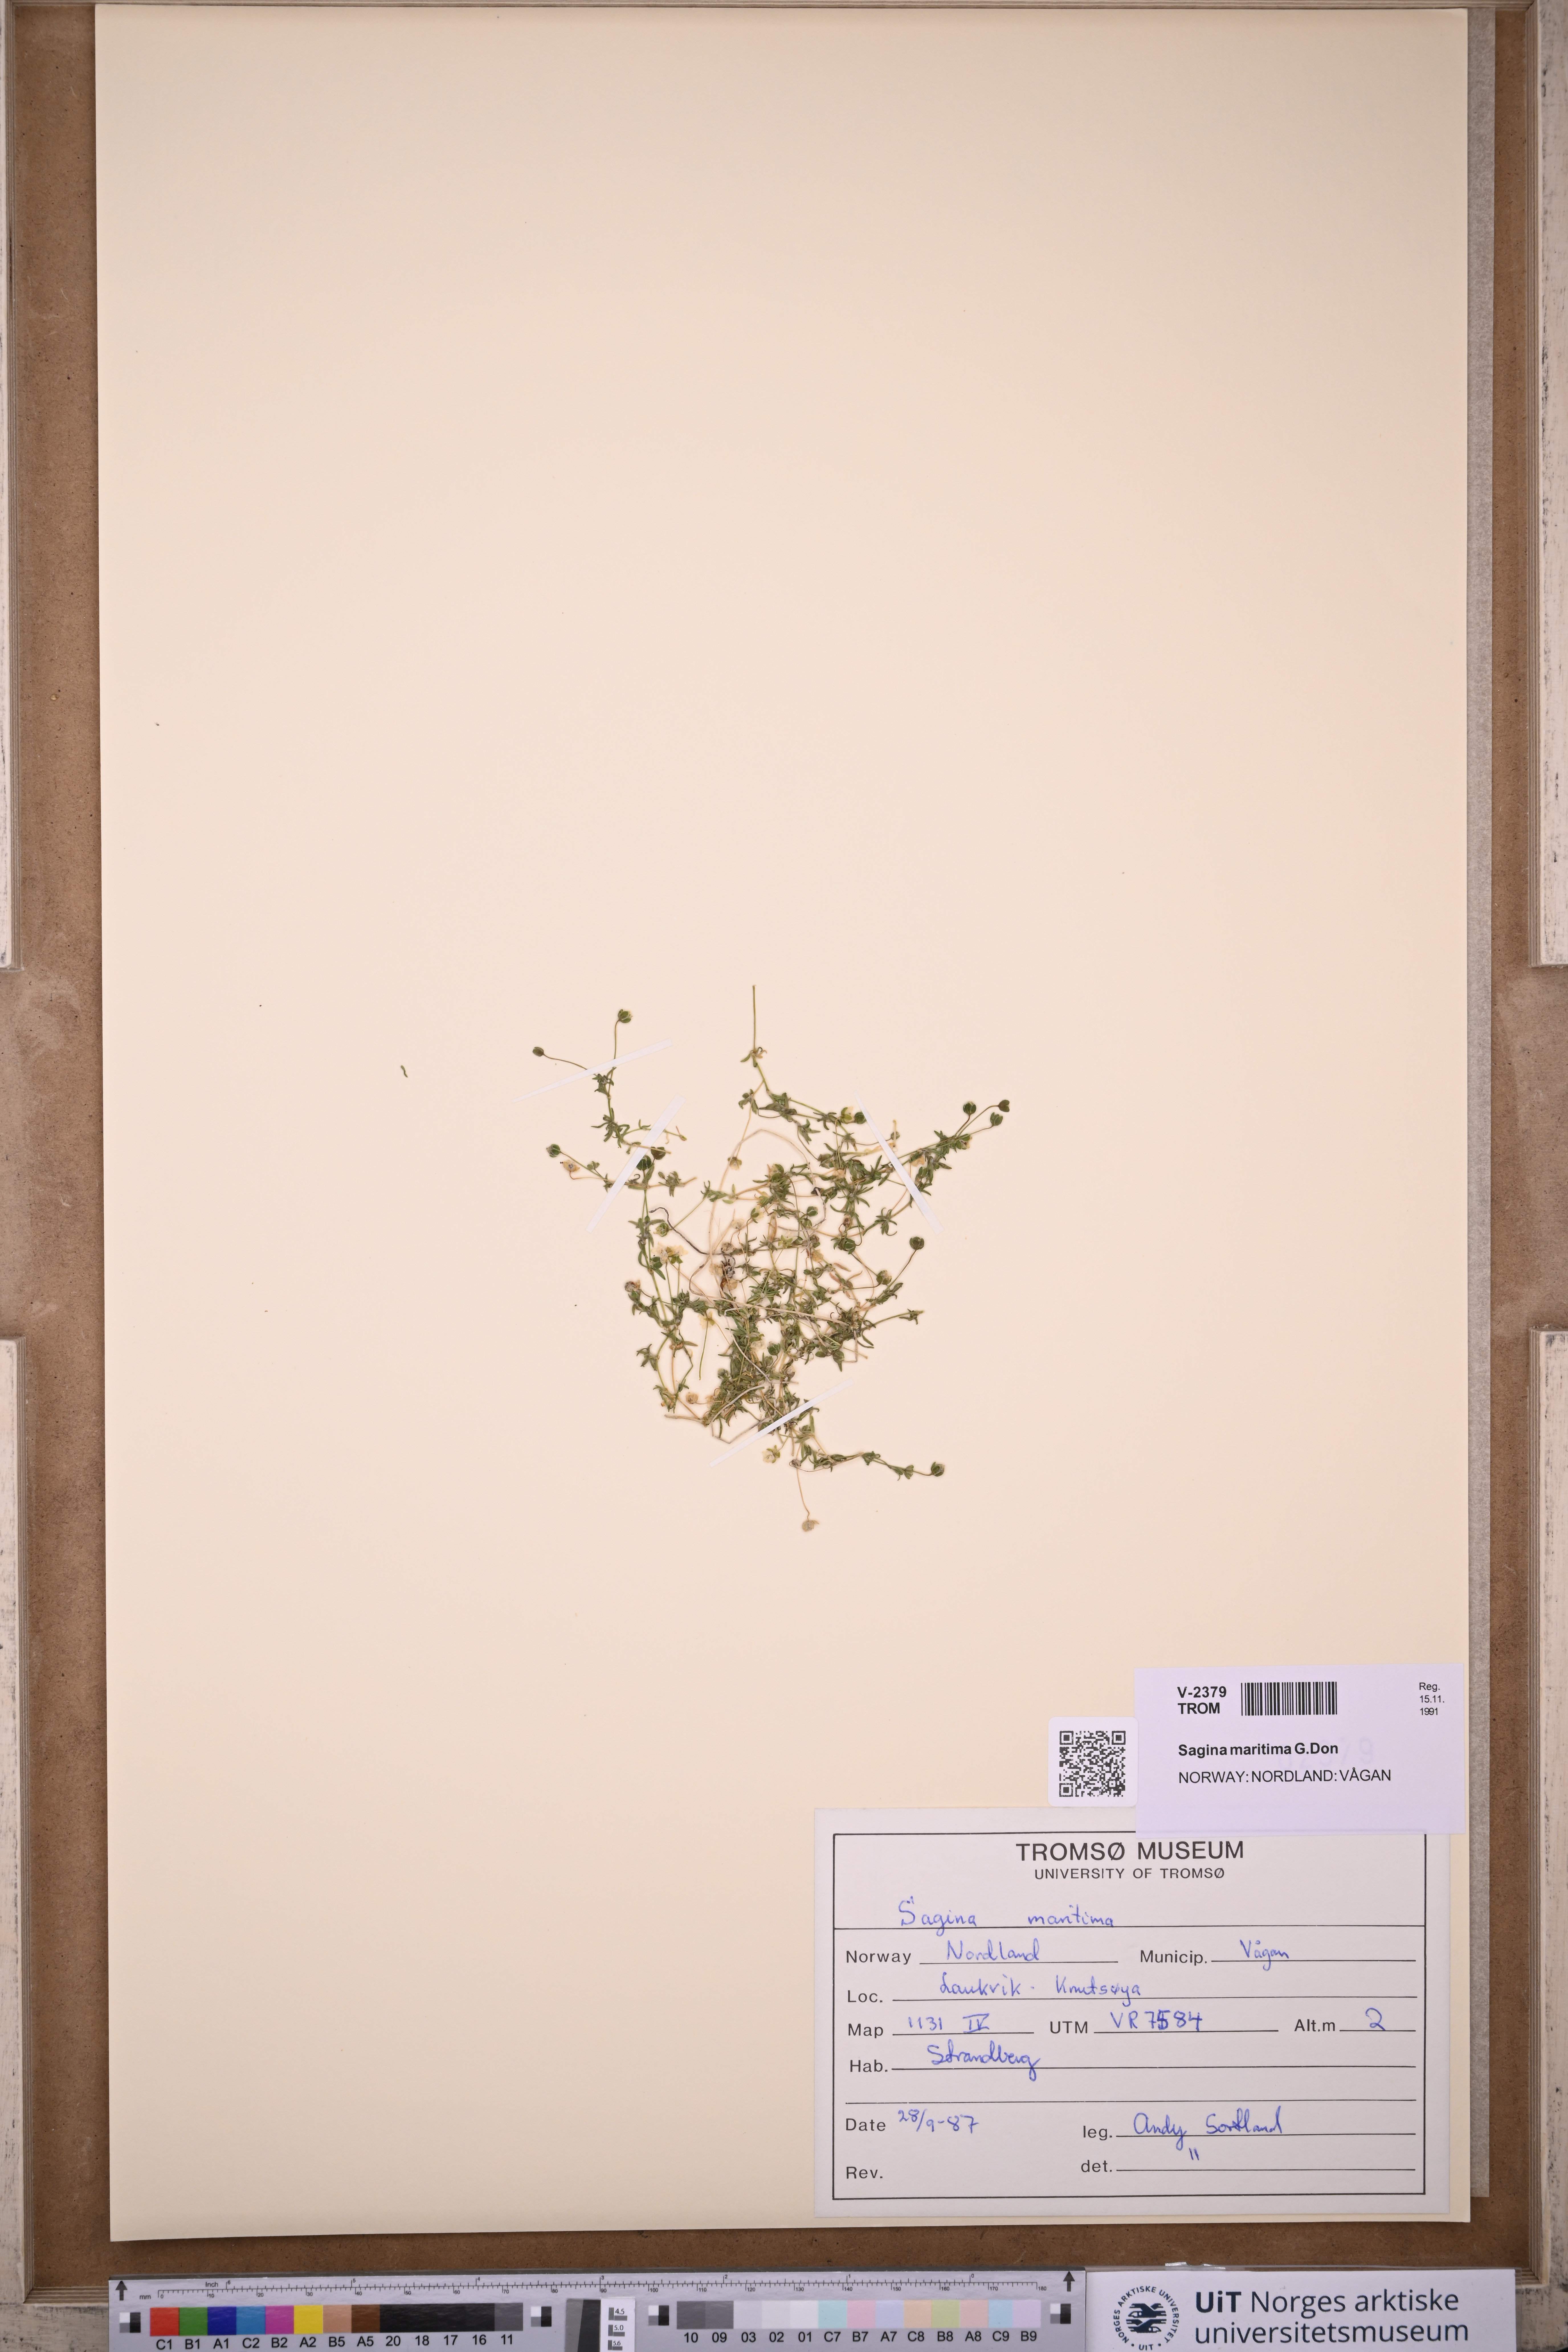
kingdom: Plantae
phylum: Tracheophyta
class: Magnoliopsida
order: Caryophyllales
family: Caryophyllaceae
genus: Sagina
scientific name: Sagina maritima
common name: Sea pearlwort
